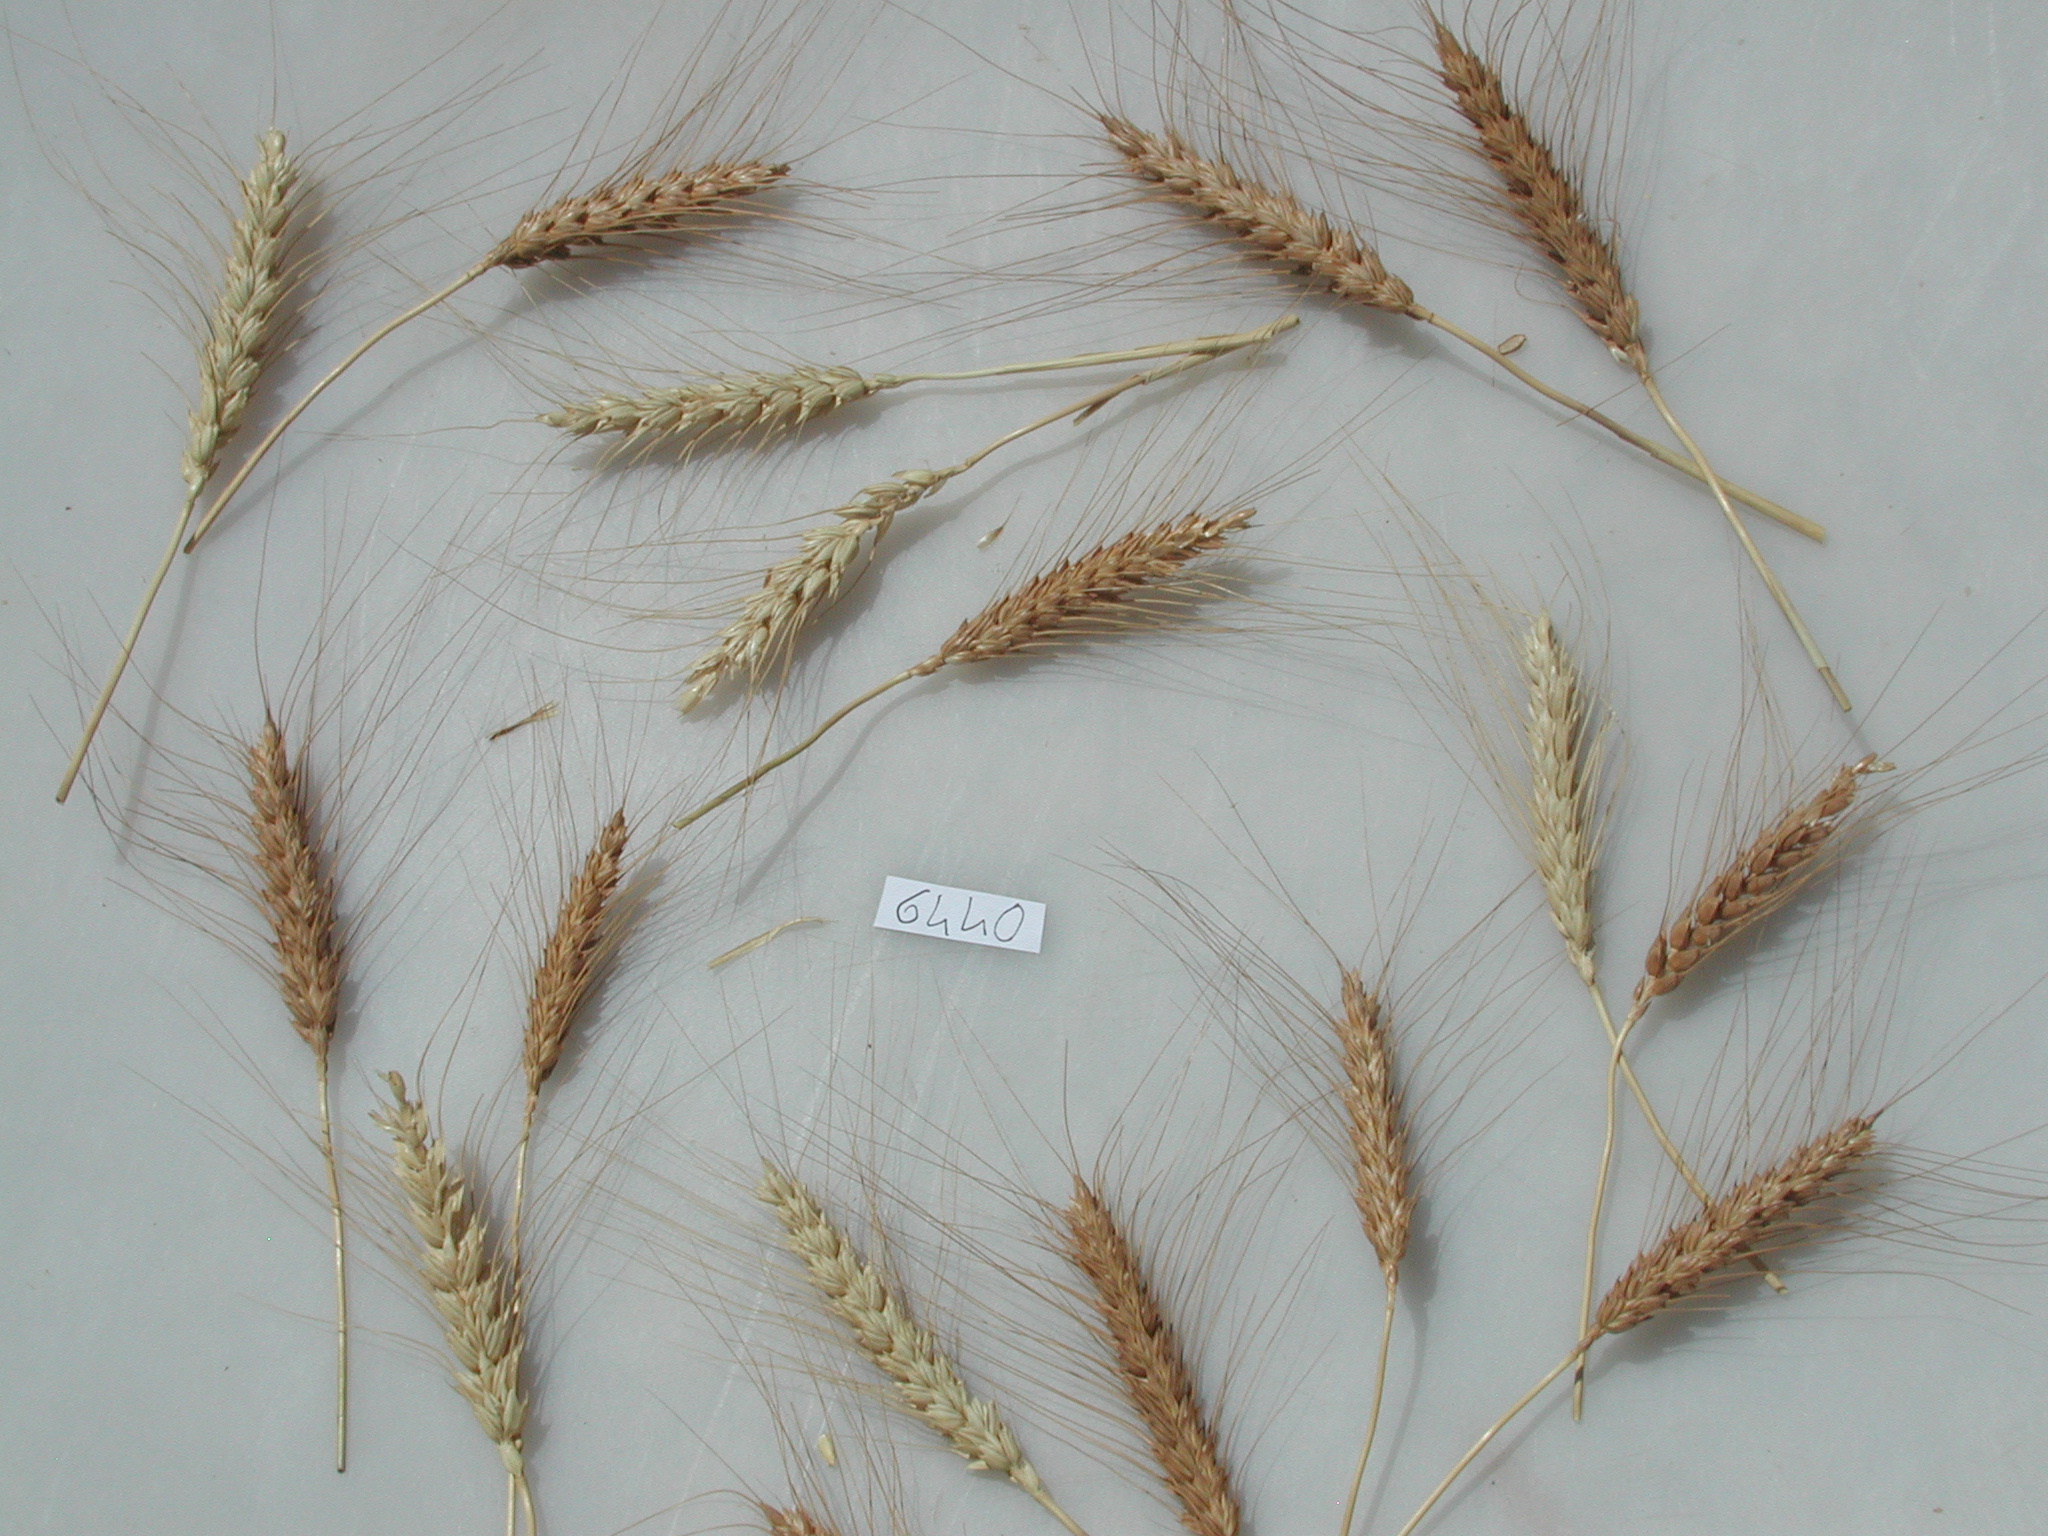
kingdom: Plantae
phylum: Tracheophyta
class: Liliopsida
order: Poales
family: Poaceae
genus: Triticum
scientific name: Triticum aestivum
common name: Wheat
